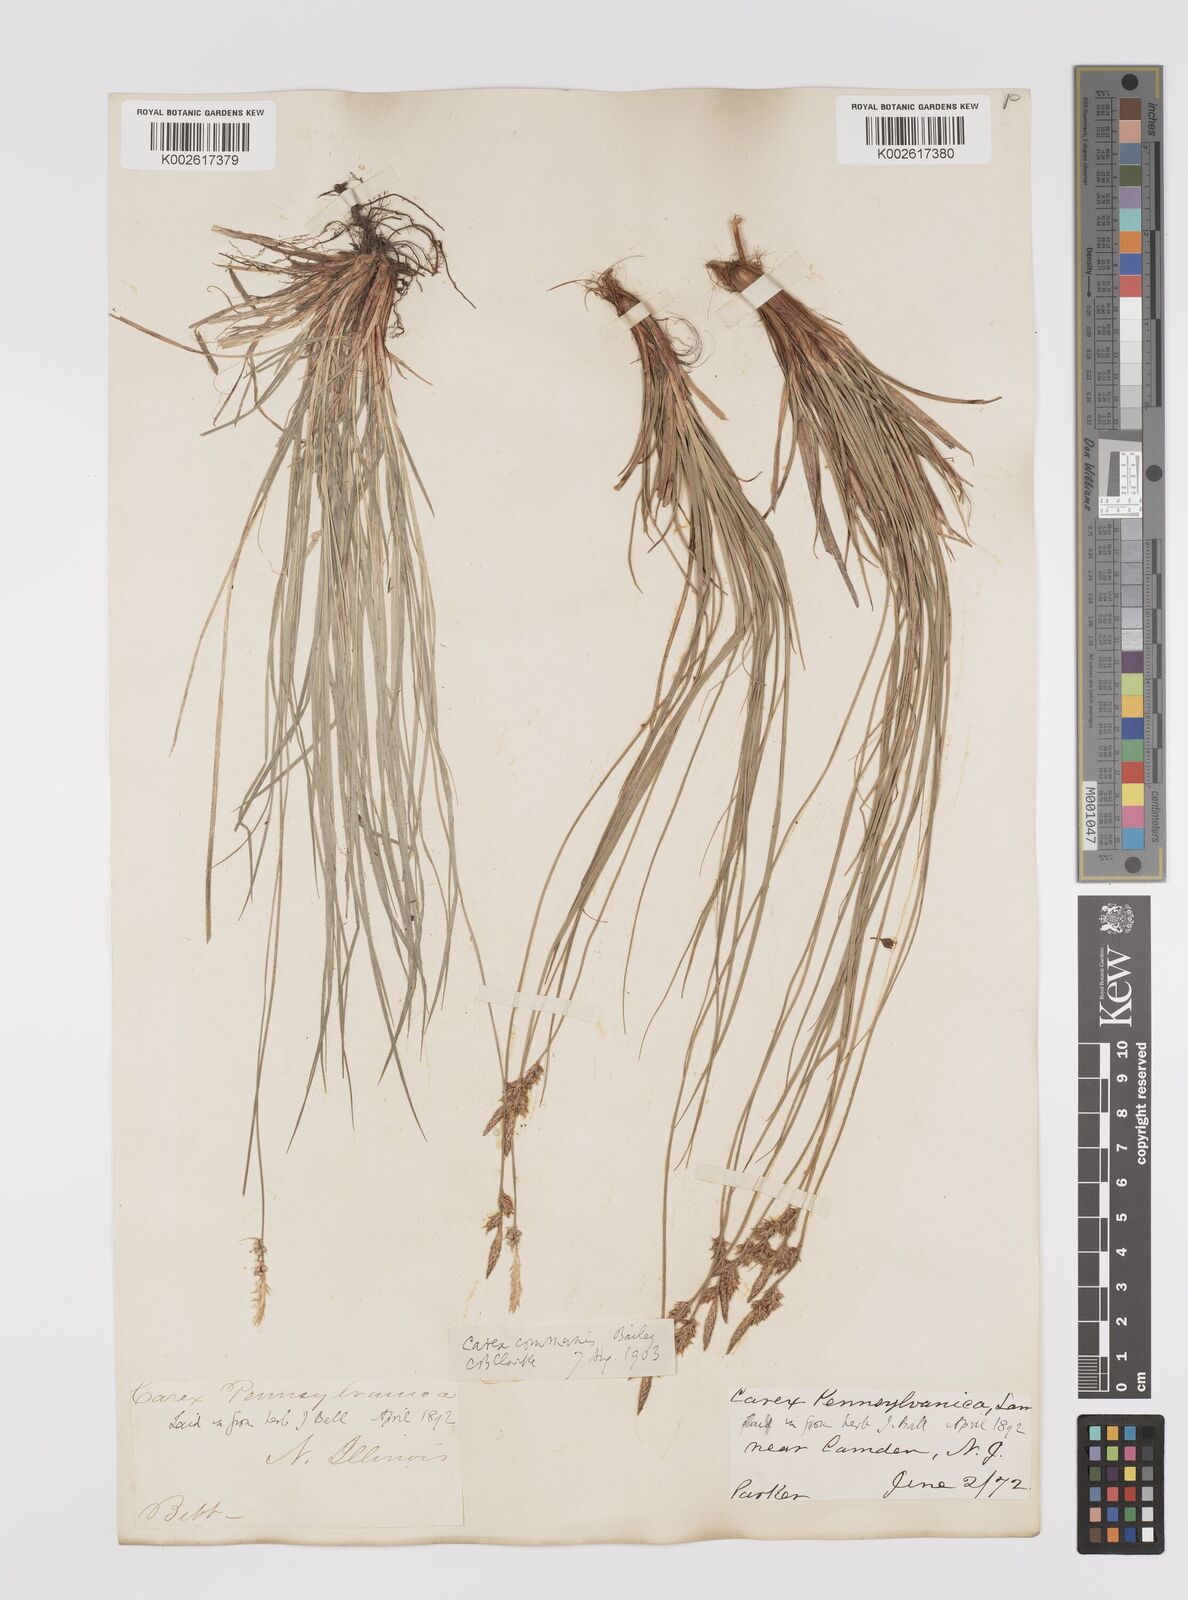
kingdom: Plantae
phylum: Tracheophyta
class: Liliopsida
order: Poales
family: Cyperaceae
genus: Carex
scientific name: Carex communis
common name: Colonial oak sedge
